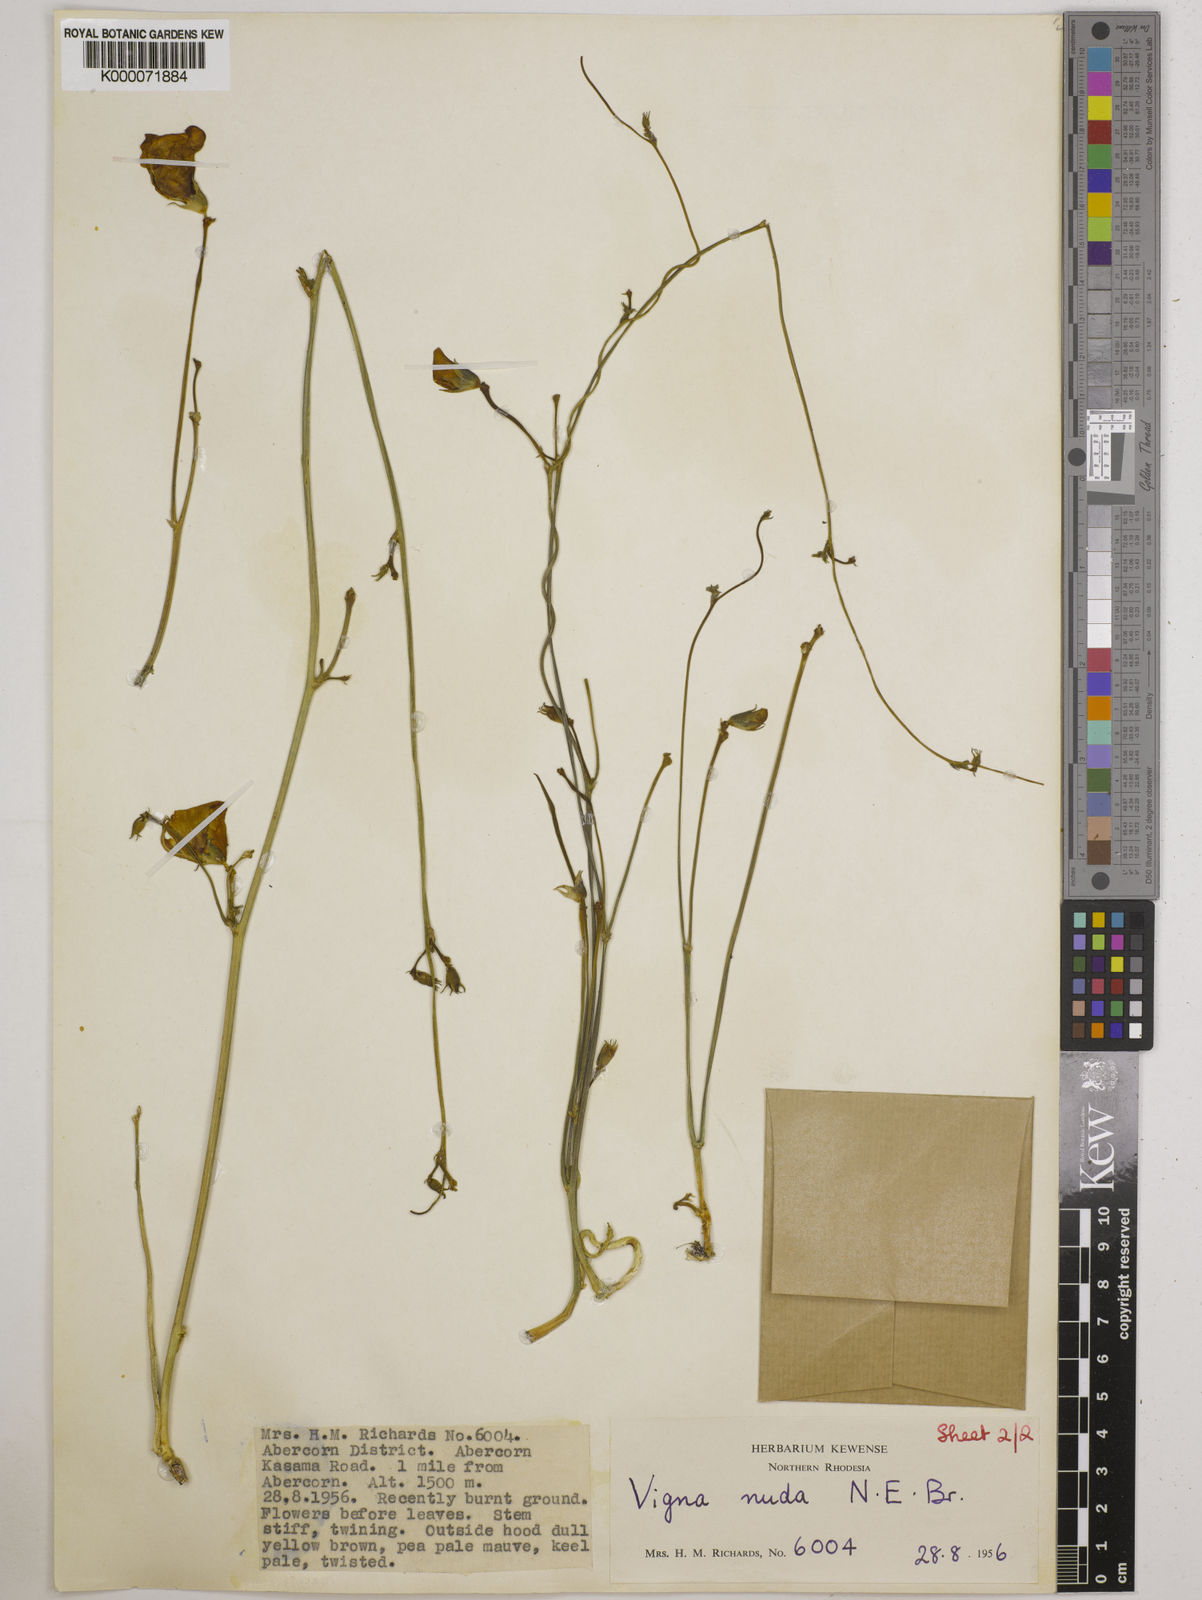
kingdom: Plantae
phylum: Tracheophyta
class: Magnoliopsida
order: Fabales
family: Fabaceae
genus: Vigna
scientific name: Vigna antunesii
